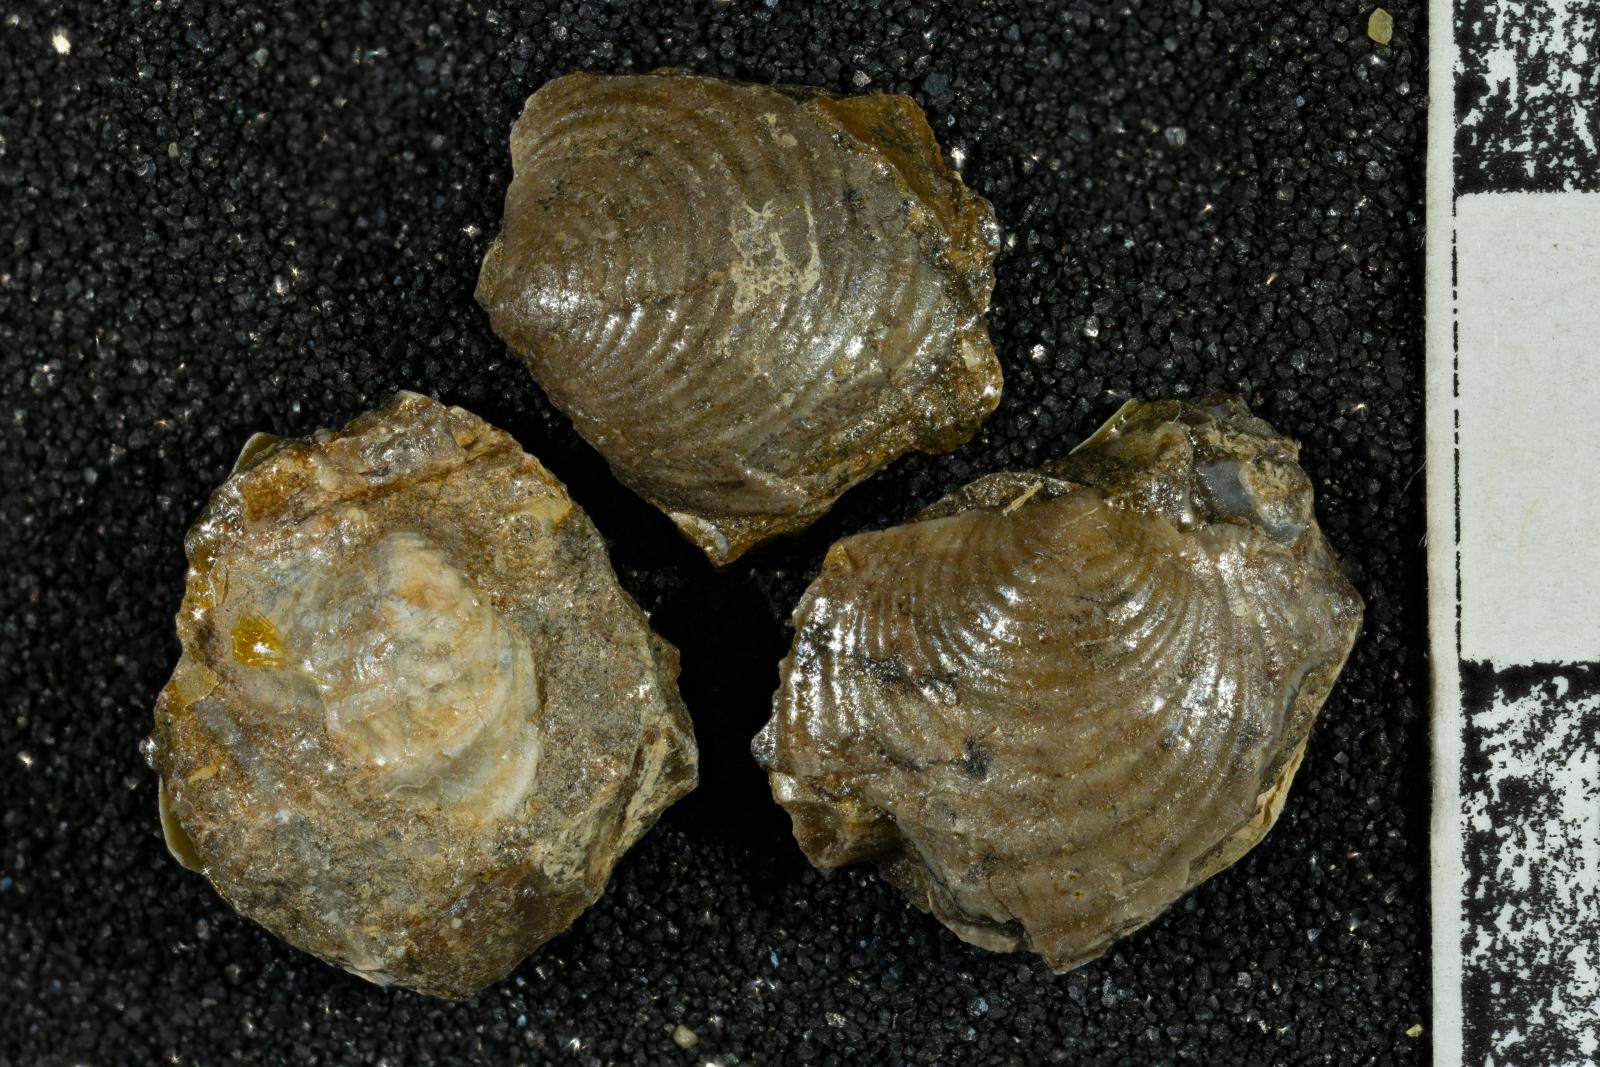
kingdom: Animalia
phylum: Mollusca
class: Bivalvia
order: Myalinida
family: Inoceramidae
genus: Cataceramus
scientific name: Cataceramus
